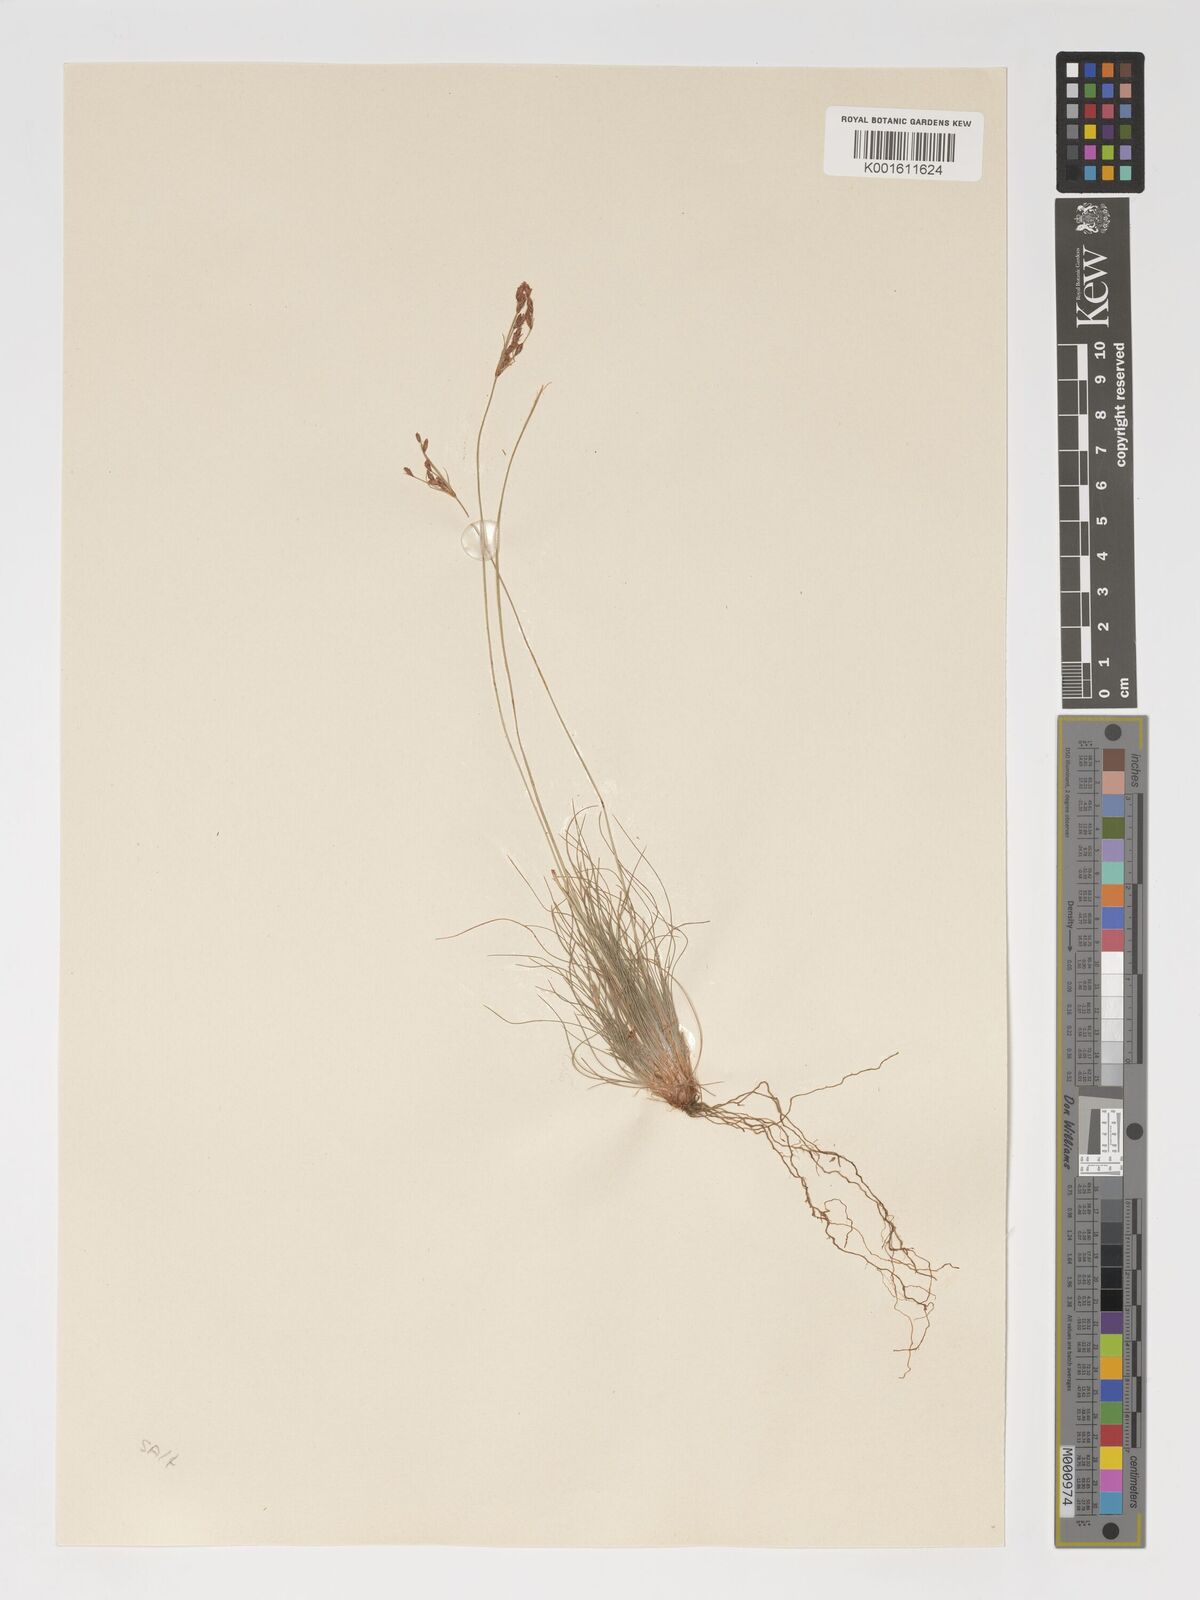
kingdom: Plantae
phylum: Tracheophyta
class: Liliopsida
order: Poales
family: Cyperaceae
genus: Bulbostylis
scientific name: Bulbostylis hispidula
